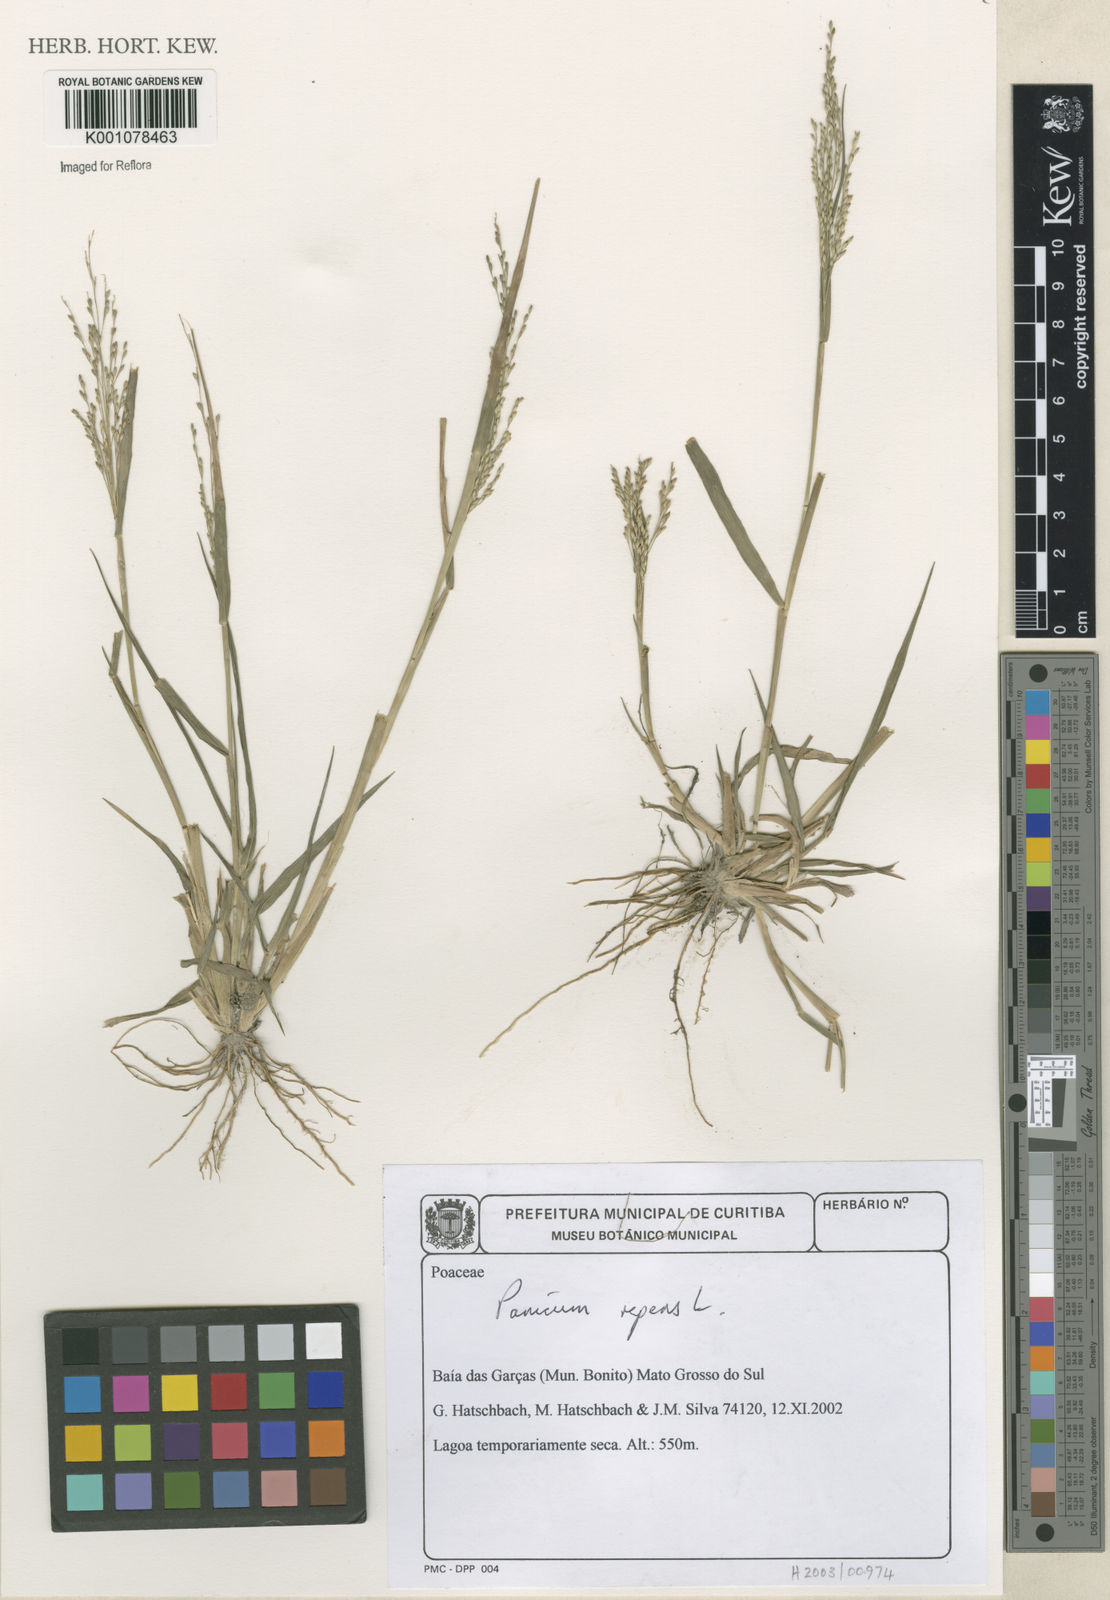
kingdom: Plantae
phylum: Tracheophyta
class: Liliopsida
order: Poales
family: Poaceae
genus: Panicum
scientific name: Panicum repens
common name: Torpedo grass
